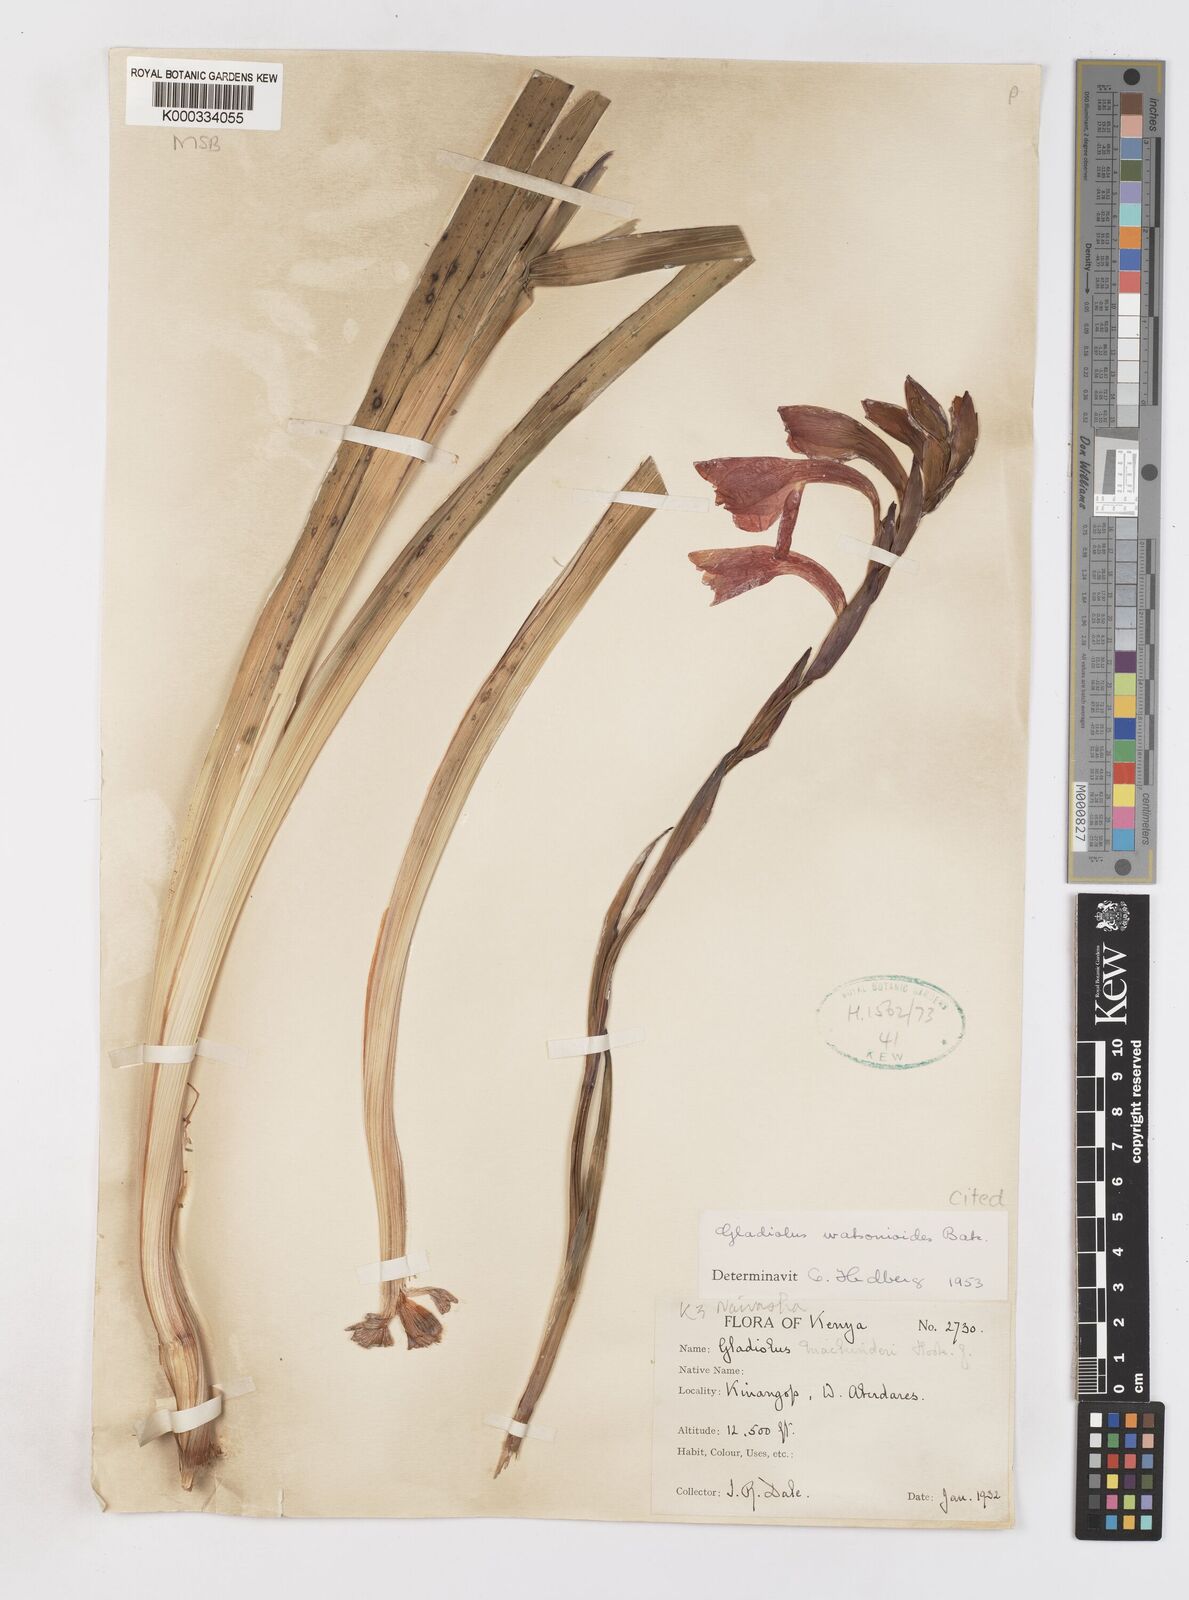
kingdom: Plantae
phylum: Tracheophyta
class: Liliopsida
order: Asparagales
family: Iridaceae
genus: Gladiolus
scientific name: Gladiolus watsonioides
